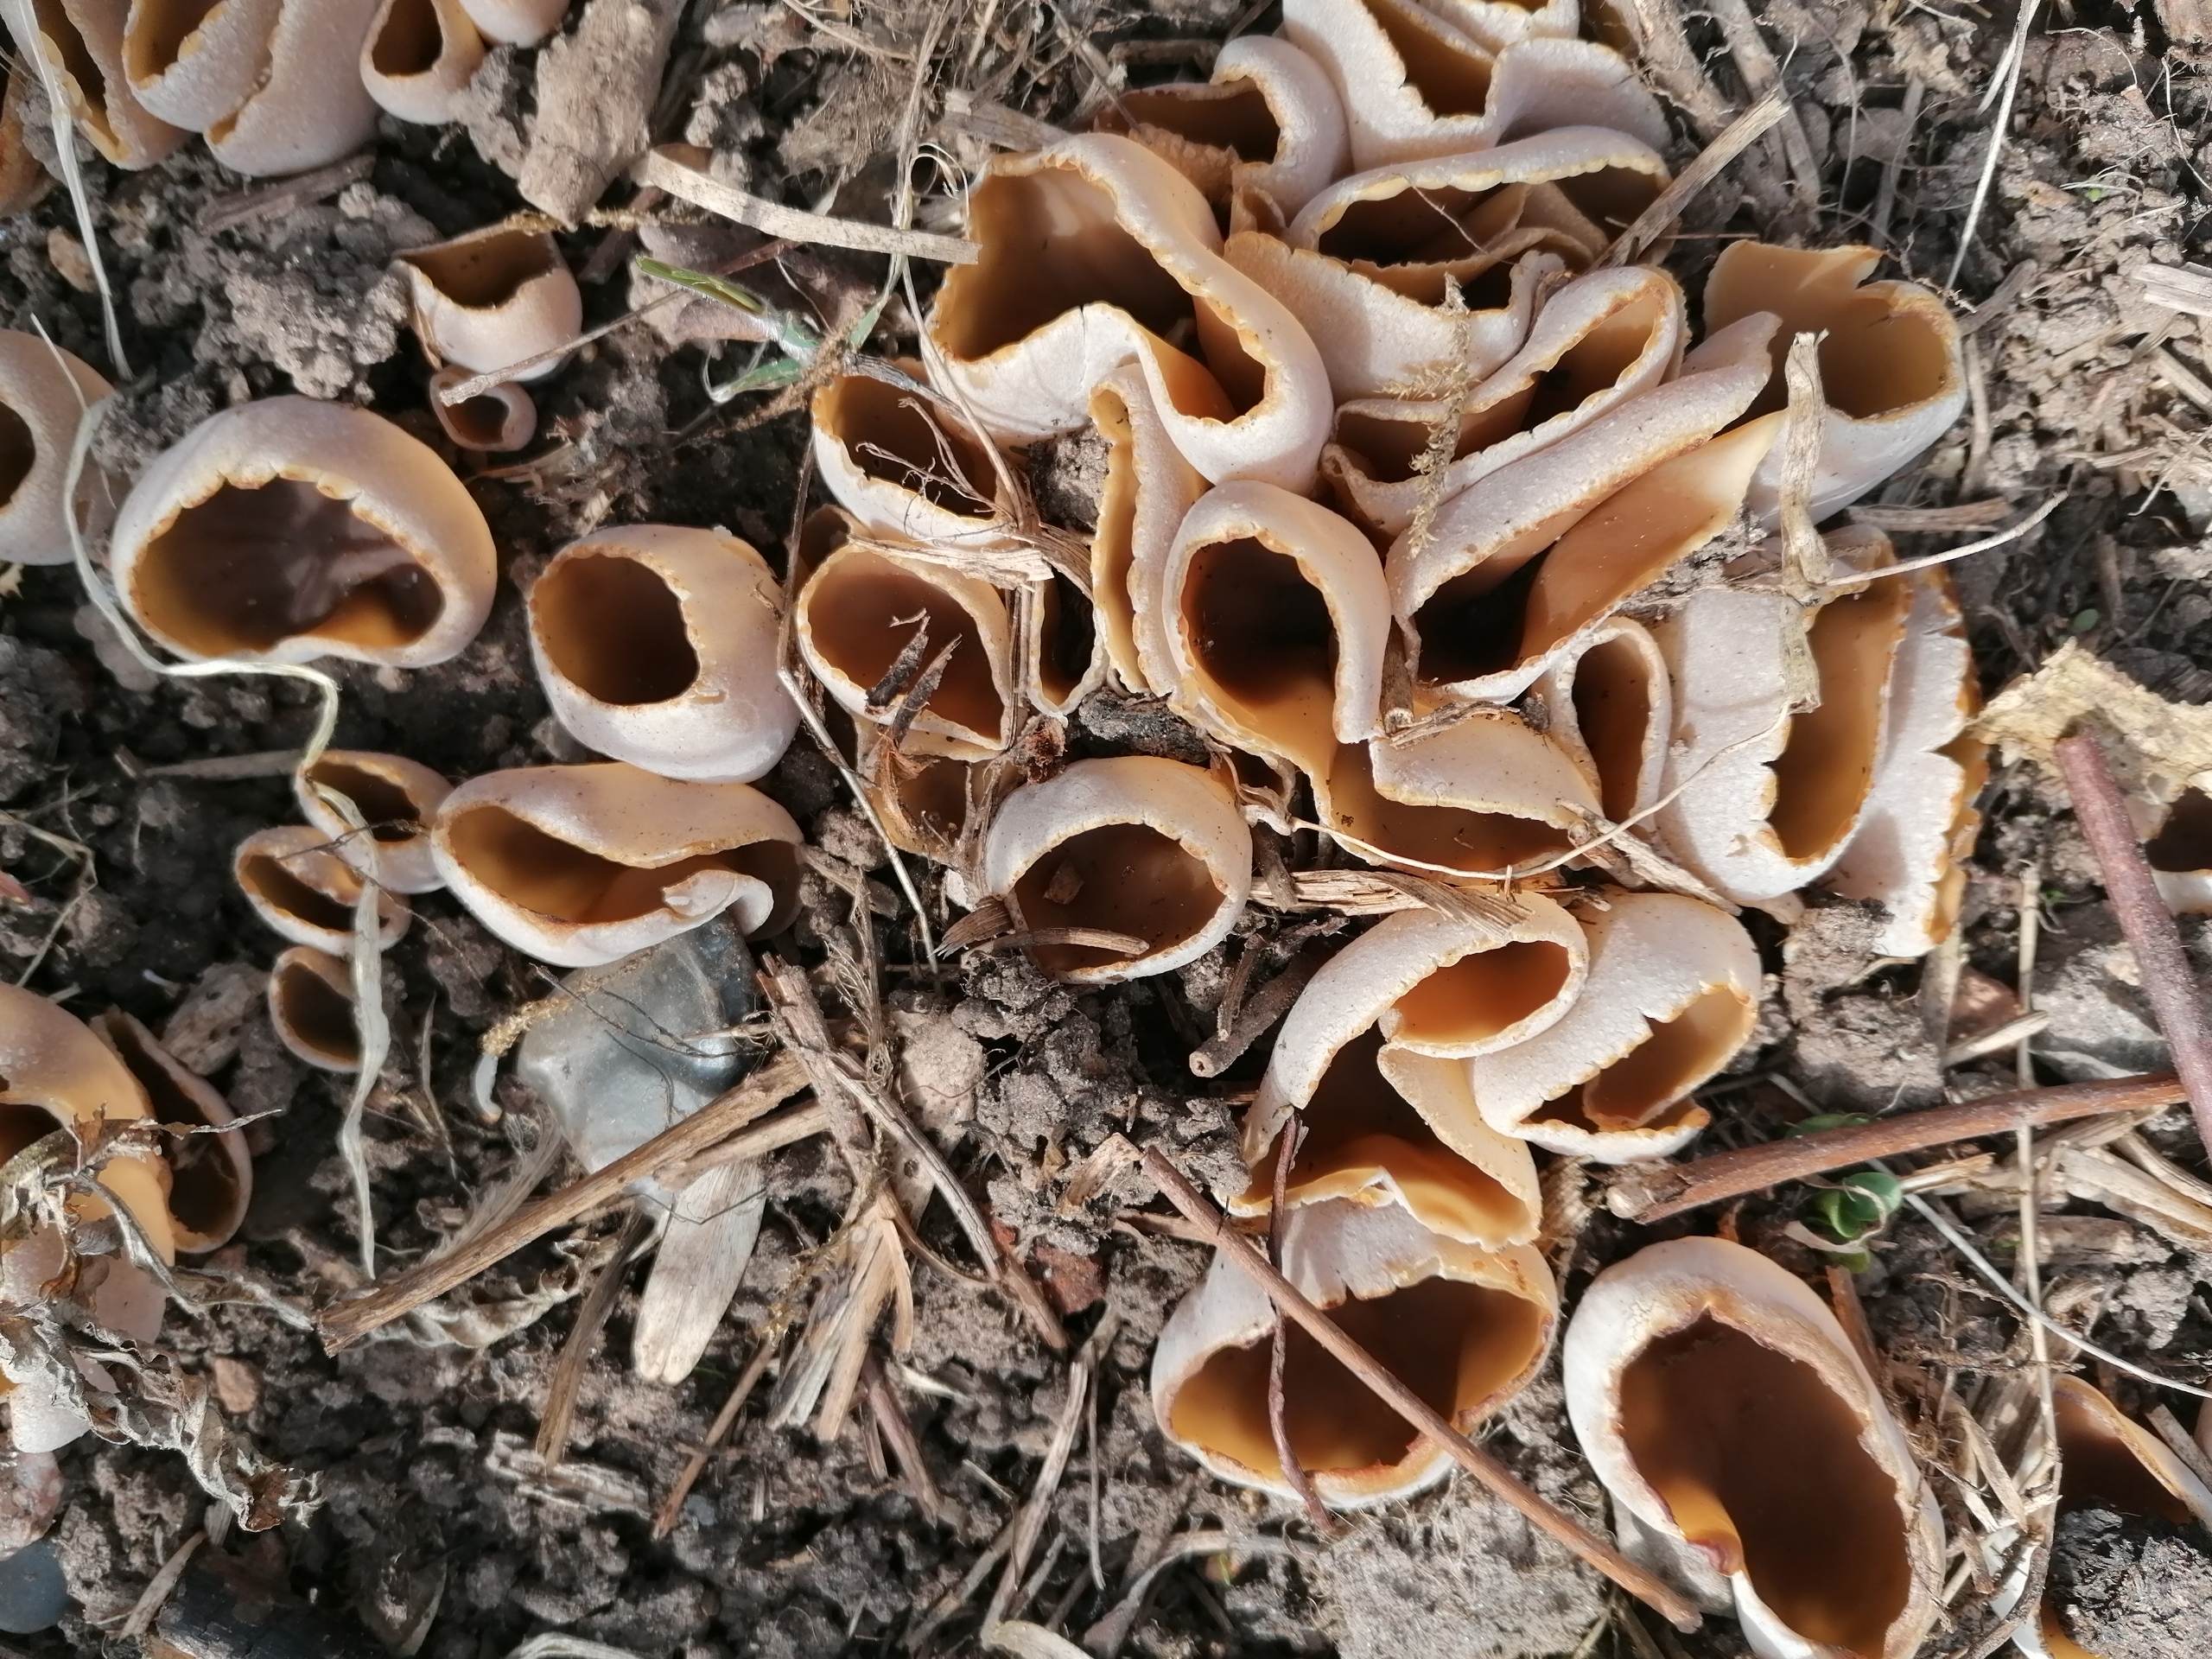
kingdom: Fungi
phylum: Ascomycota
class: Pezizomycetes
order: Pezizales
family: Pezizaceae
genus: Peziza
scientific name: Peziza
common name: Bægersvamp
